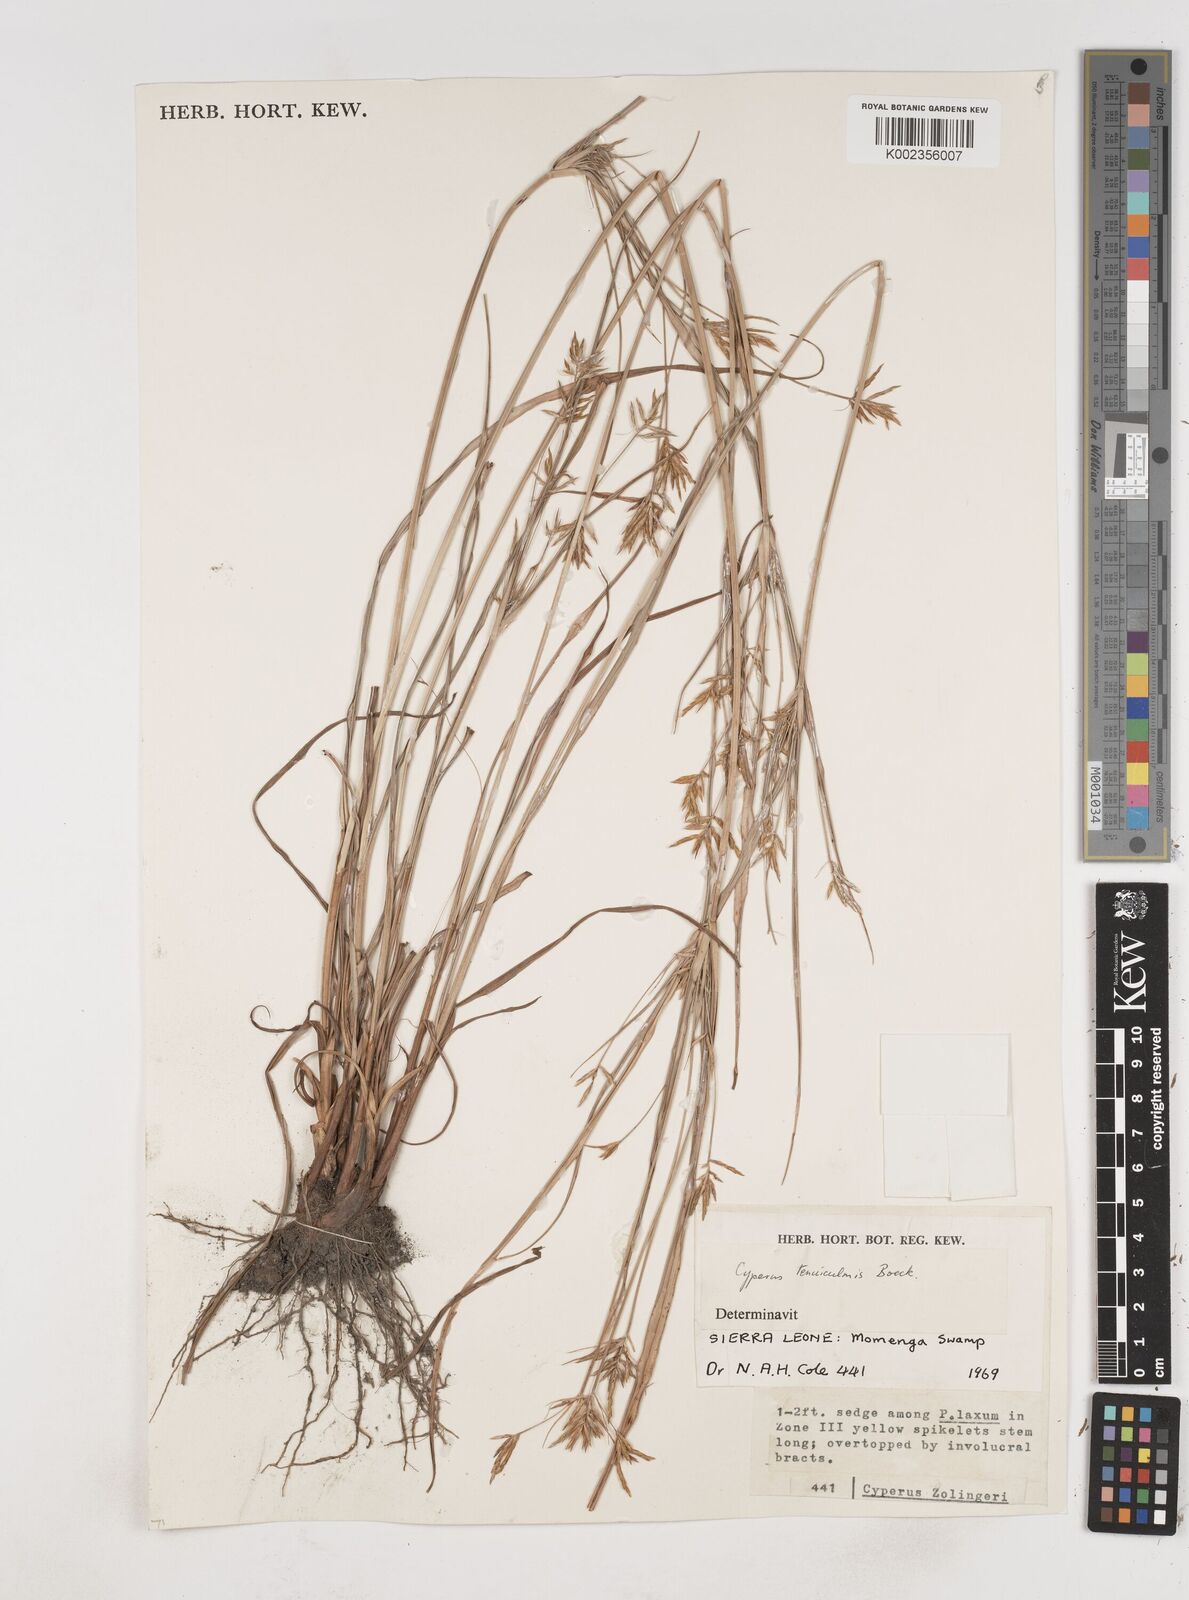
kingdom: Plantae
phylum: Tracheophyta
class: Liliopsida
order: Poales
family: Cyperaceae
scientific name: Cyperaceae
